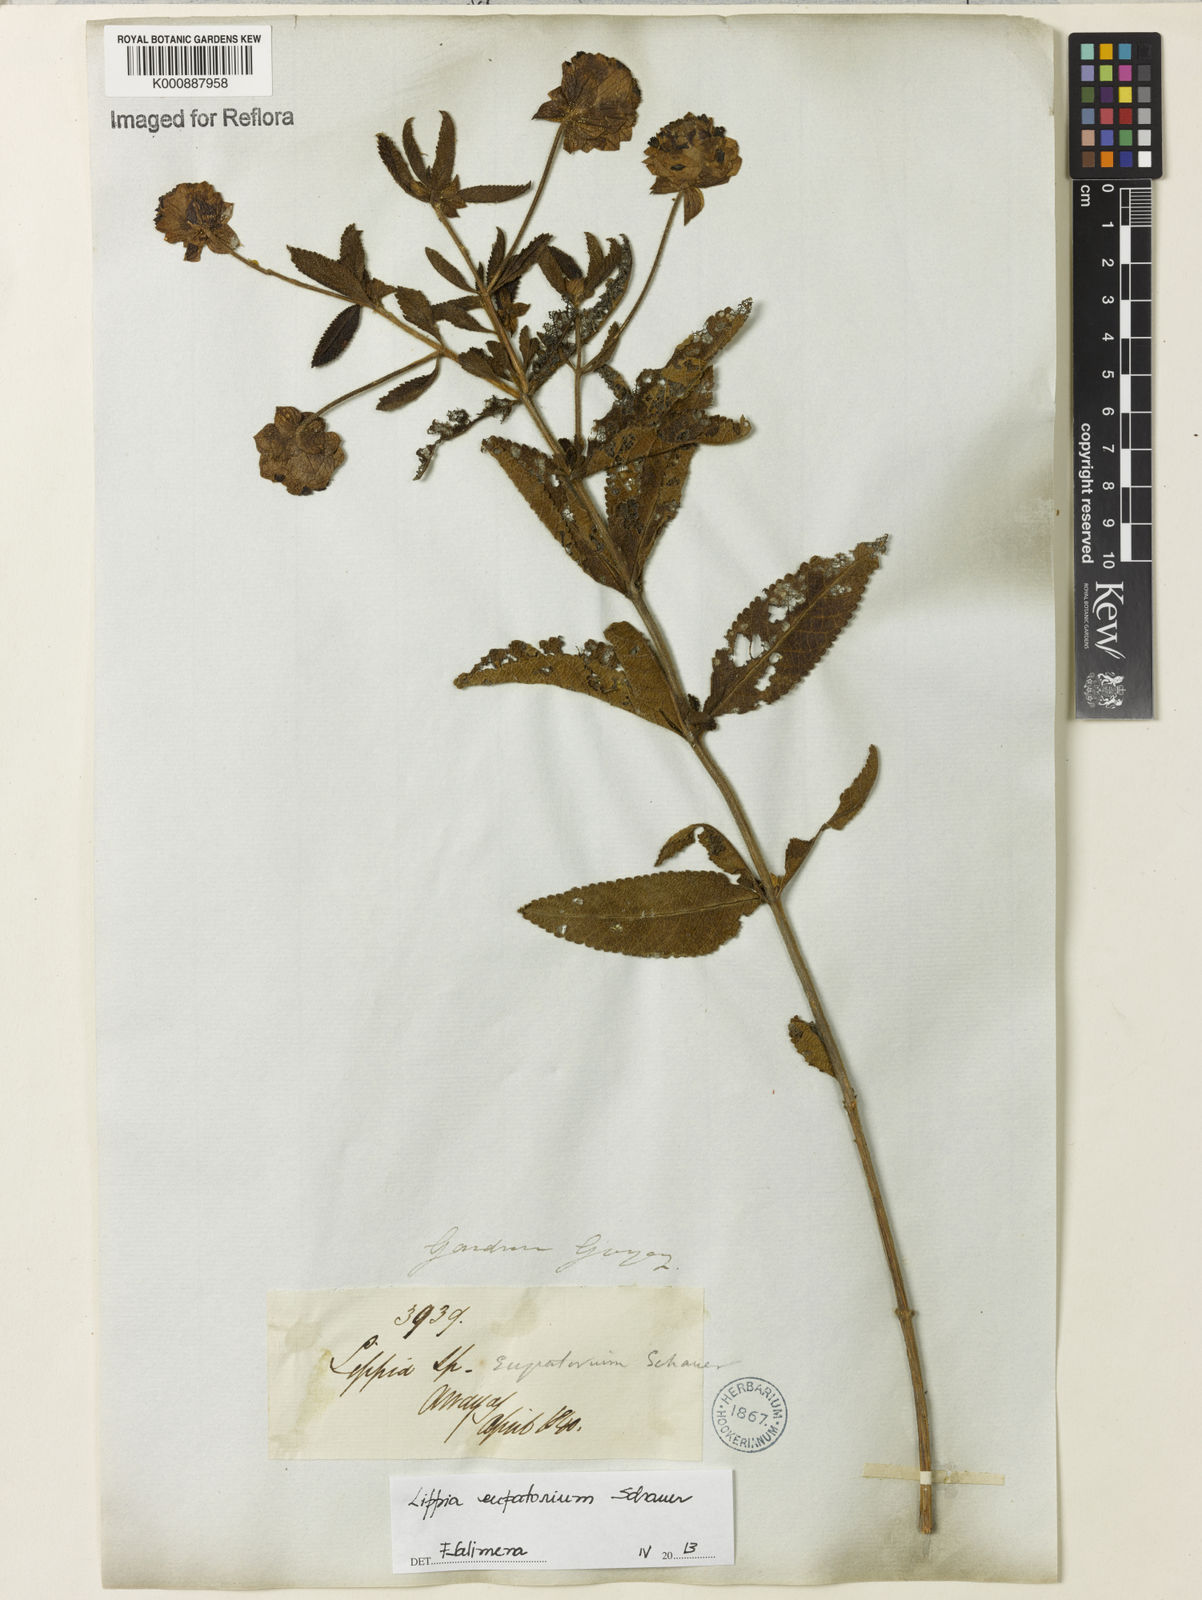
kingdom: Plantae
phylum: Tracheophyta
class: Magnoliopsida
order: Lamiales
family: Verbenaceae
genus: Lippia
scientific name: Lippia eupatorium
